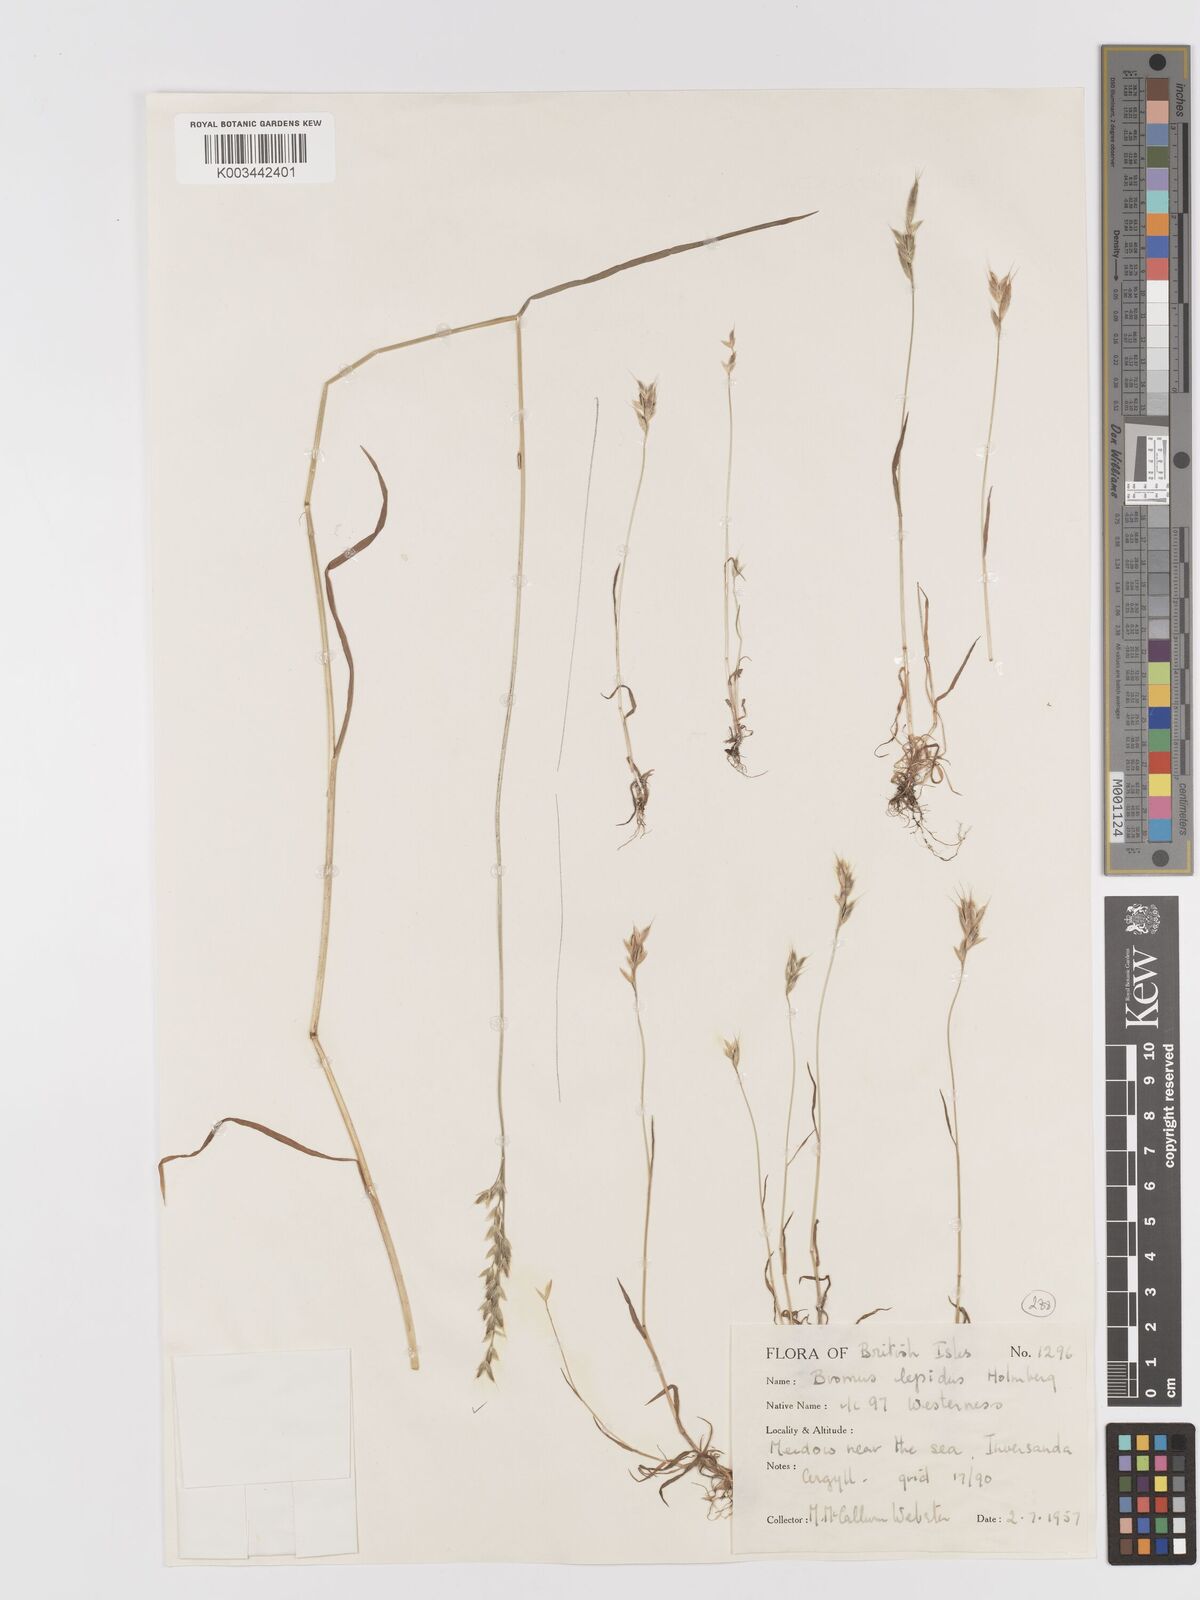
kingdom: Plantae
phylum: Tracheophyta
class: Liliopsida
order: Poales
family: Poaceae
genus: Bromus
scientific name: Bromus lepidus
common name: Slender soft-brome
